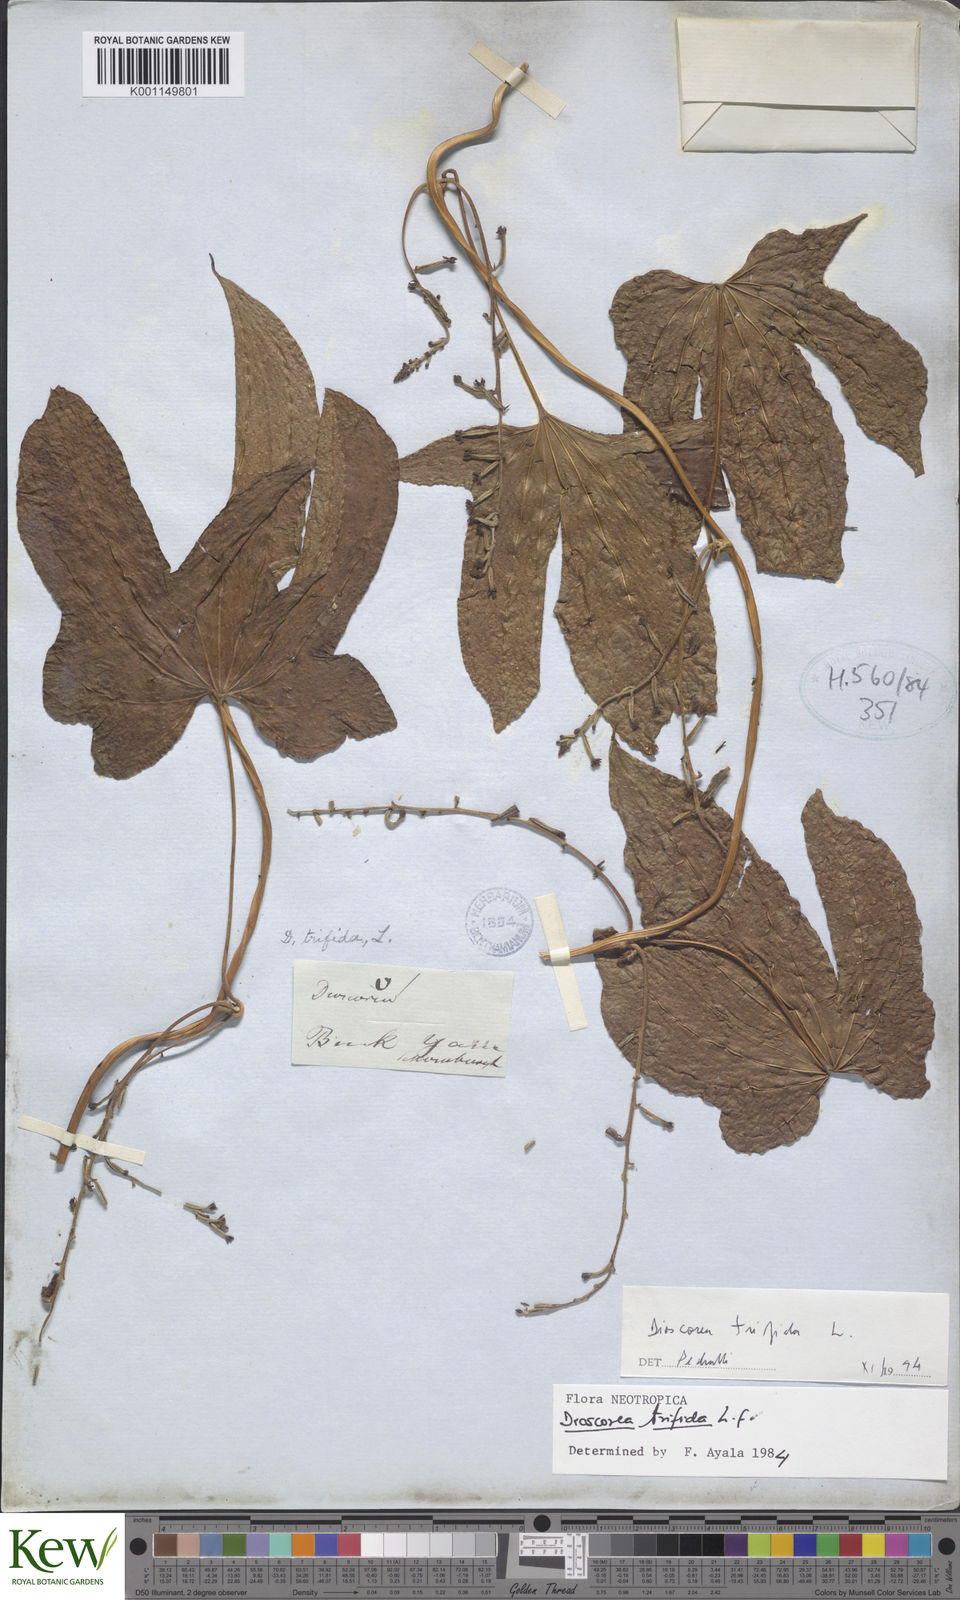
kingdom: Plantae
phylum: Tracheophyta
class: Liliopsida
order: Dioscoreales
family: Dioscoreaceae
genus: Dioscorea
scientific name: Dioscorea trifida
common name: Cush-cush
